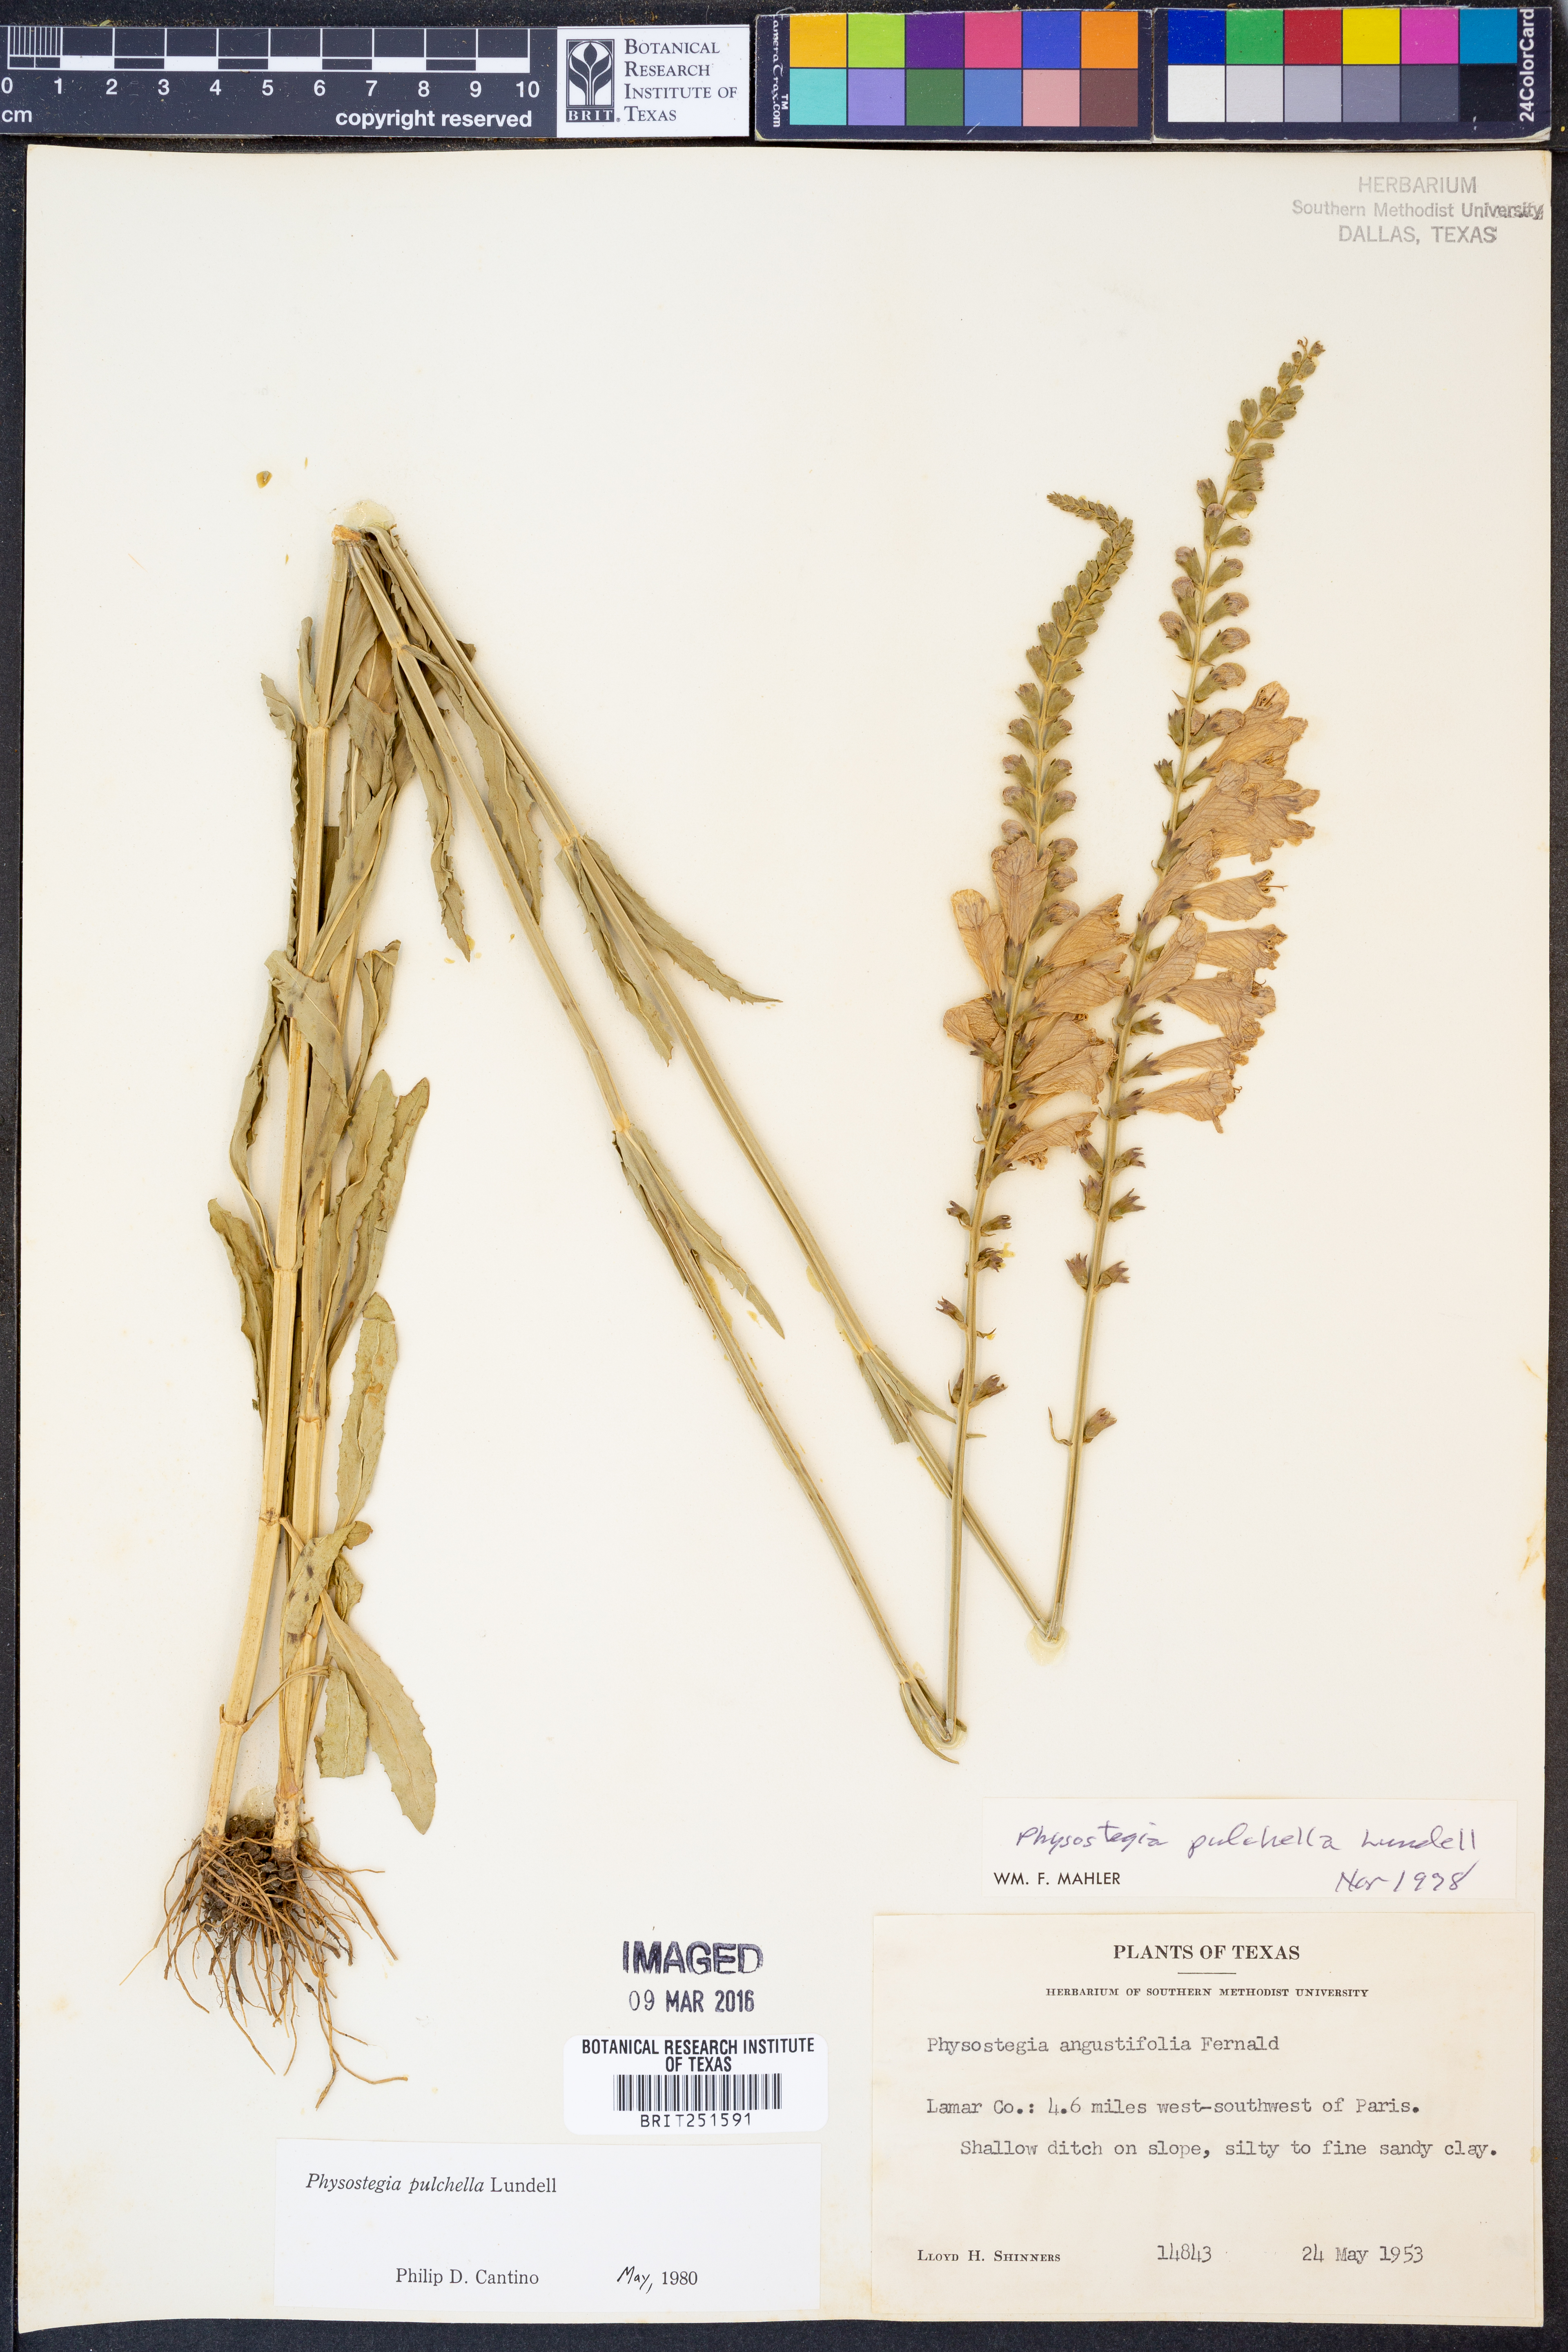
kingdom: Plantae
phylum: Tracheophyta
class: Magnoliopsida
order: Lamiales
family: Lamiaceae
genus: Physostegia
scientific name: Physostegia pulchella
